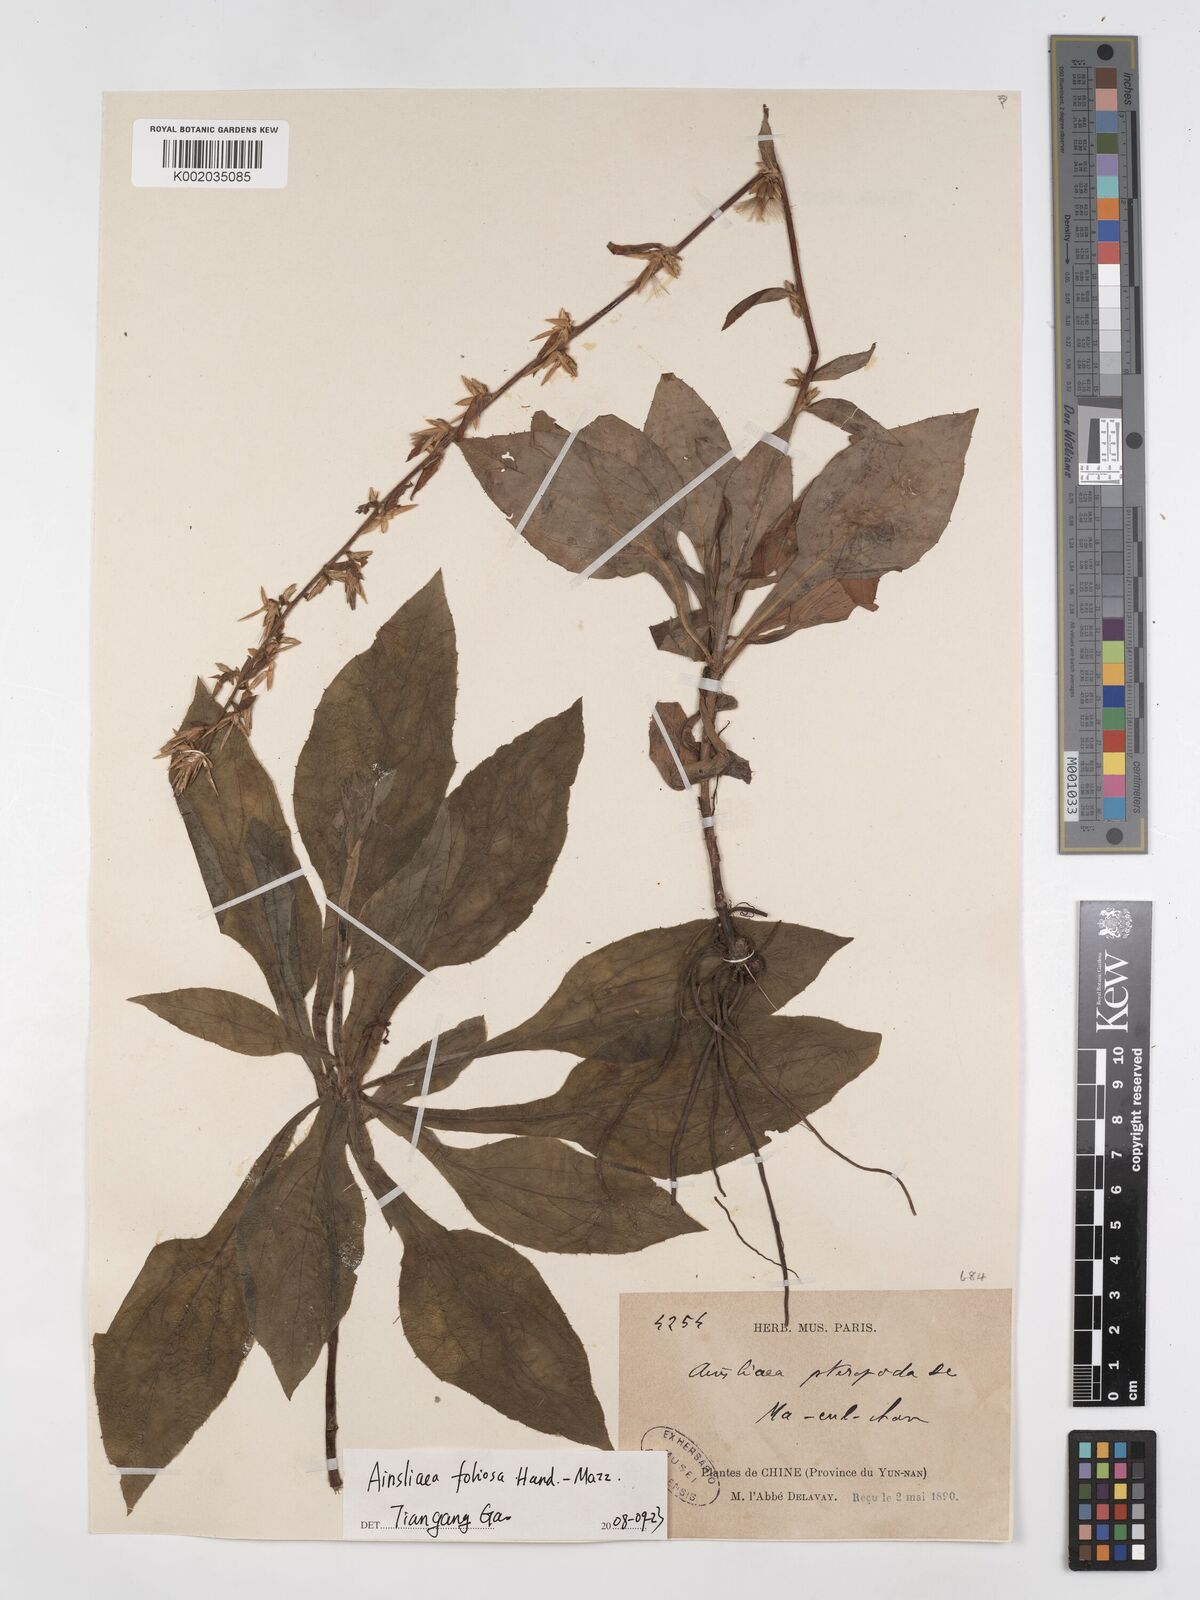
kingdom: Plantae
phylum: Tracheophyta
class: Magnoliopsida
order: Asterales
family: Asteraceae
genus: Ainsliaea
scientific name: Ainsliaea foliosa
